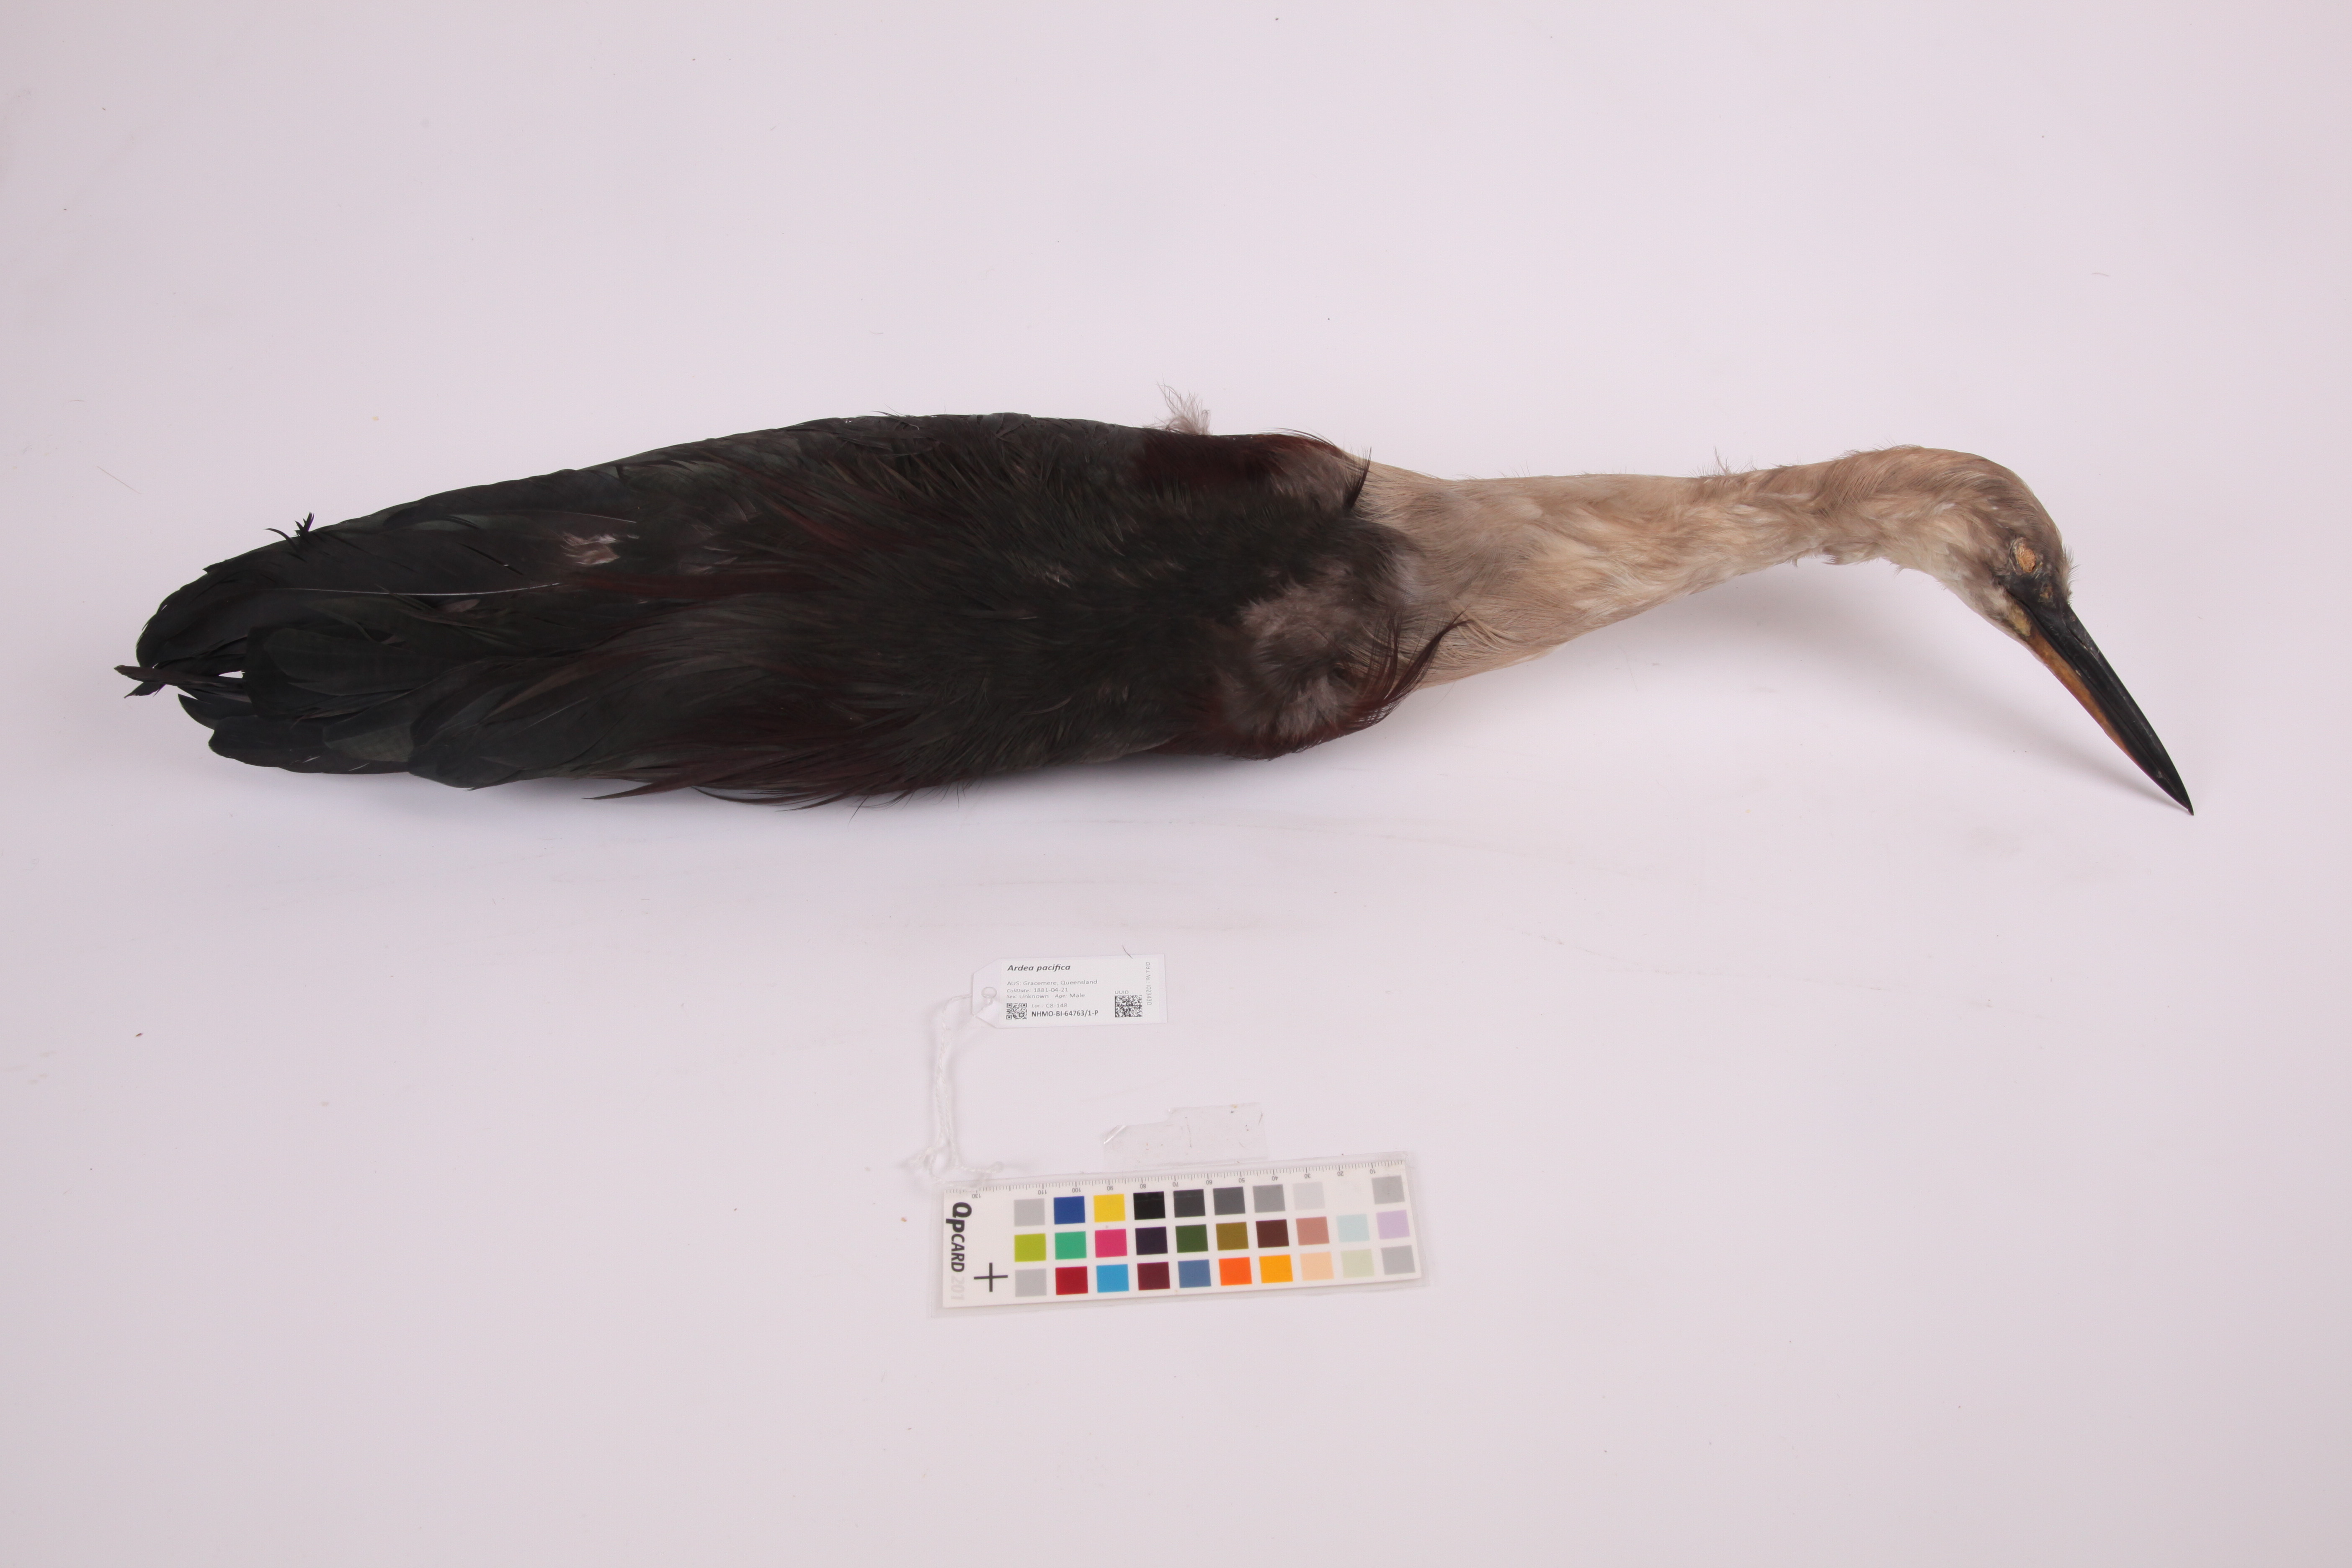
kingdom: Animalia
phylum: Chordata
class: Aves
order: Pelecaniformes
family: Ardeidae
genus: Ardea
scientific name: Ardea pacifica
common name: White-necked heron
